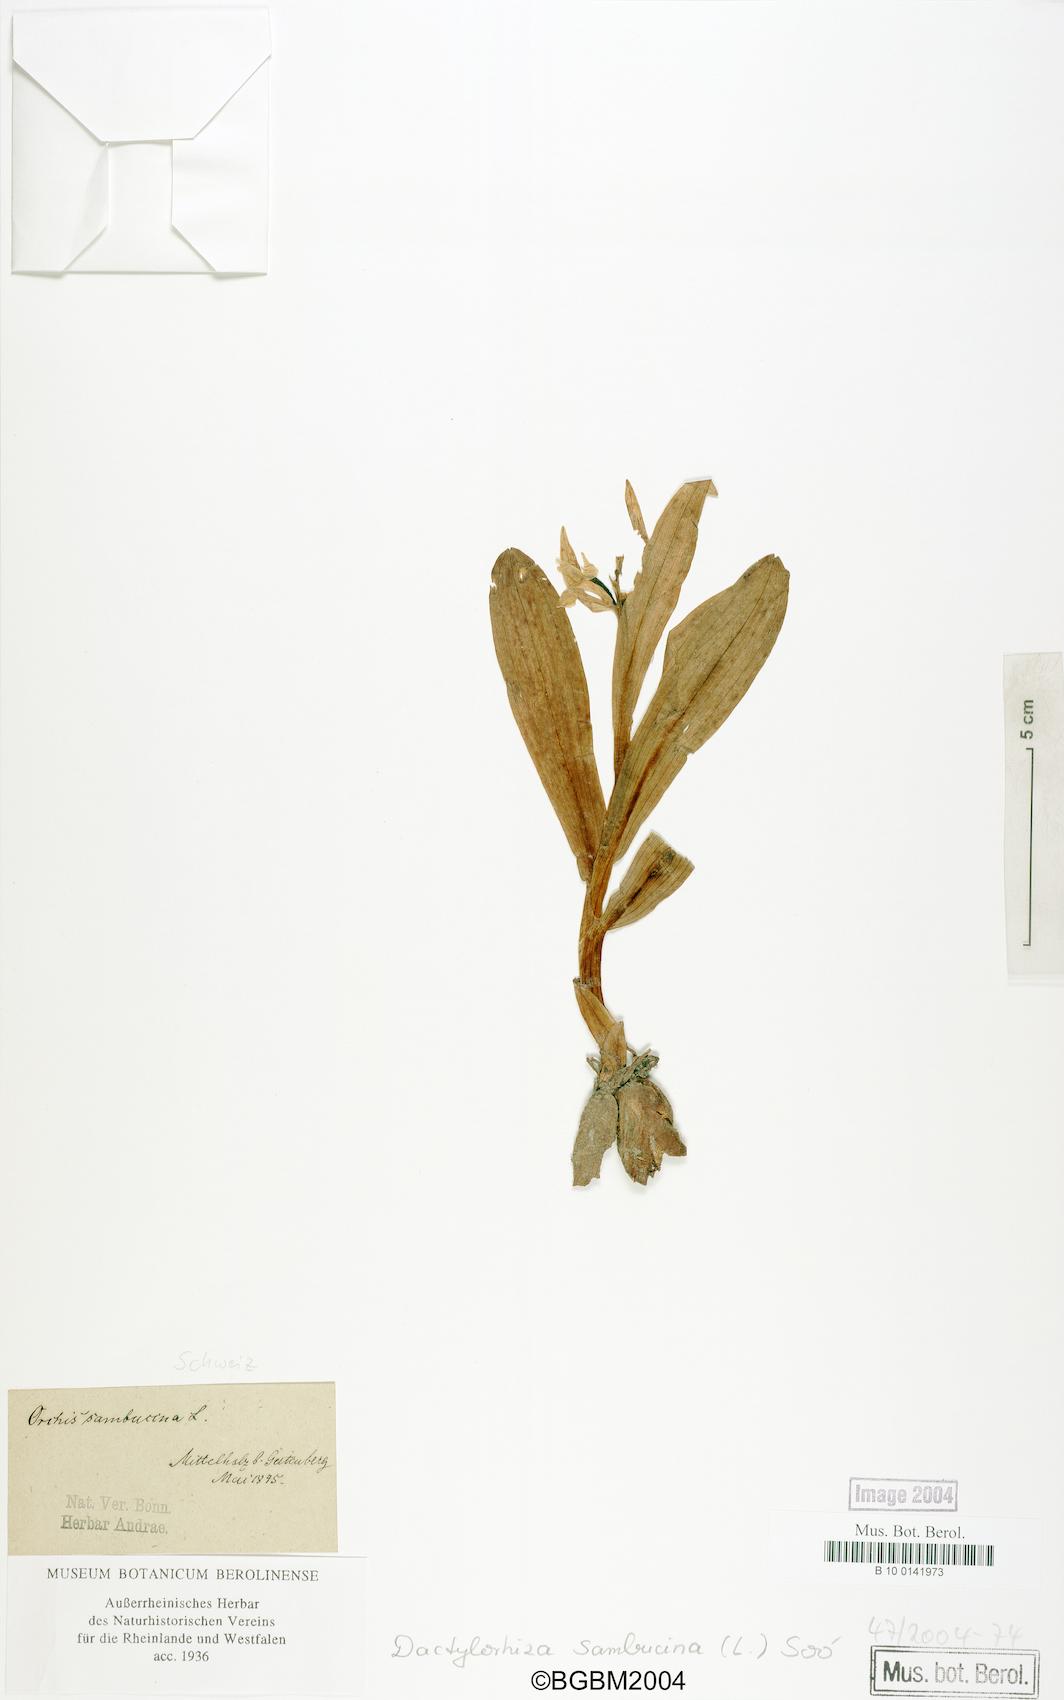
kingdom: Plantae
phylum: Tracheophyta
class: Liliopsida
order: Asparagales
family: Orchidaceae
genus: Dactylorhiza
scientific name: Dactylorhiza sambucina
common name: Elder-flowered orchid
